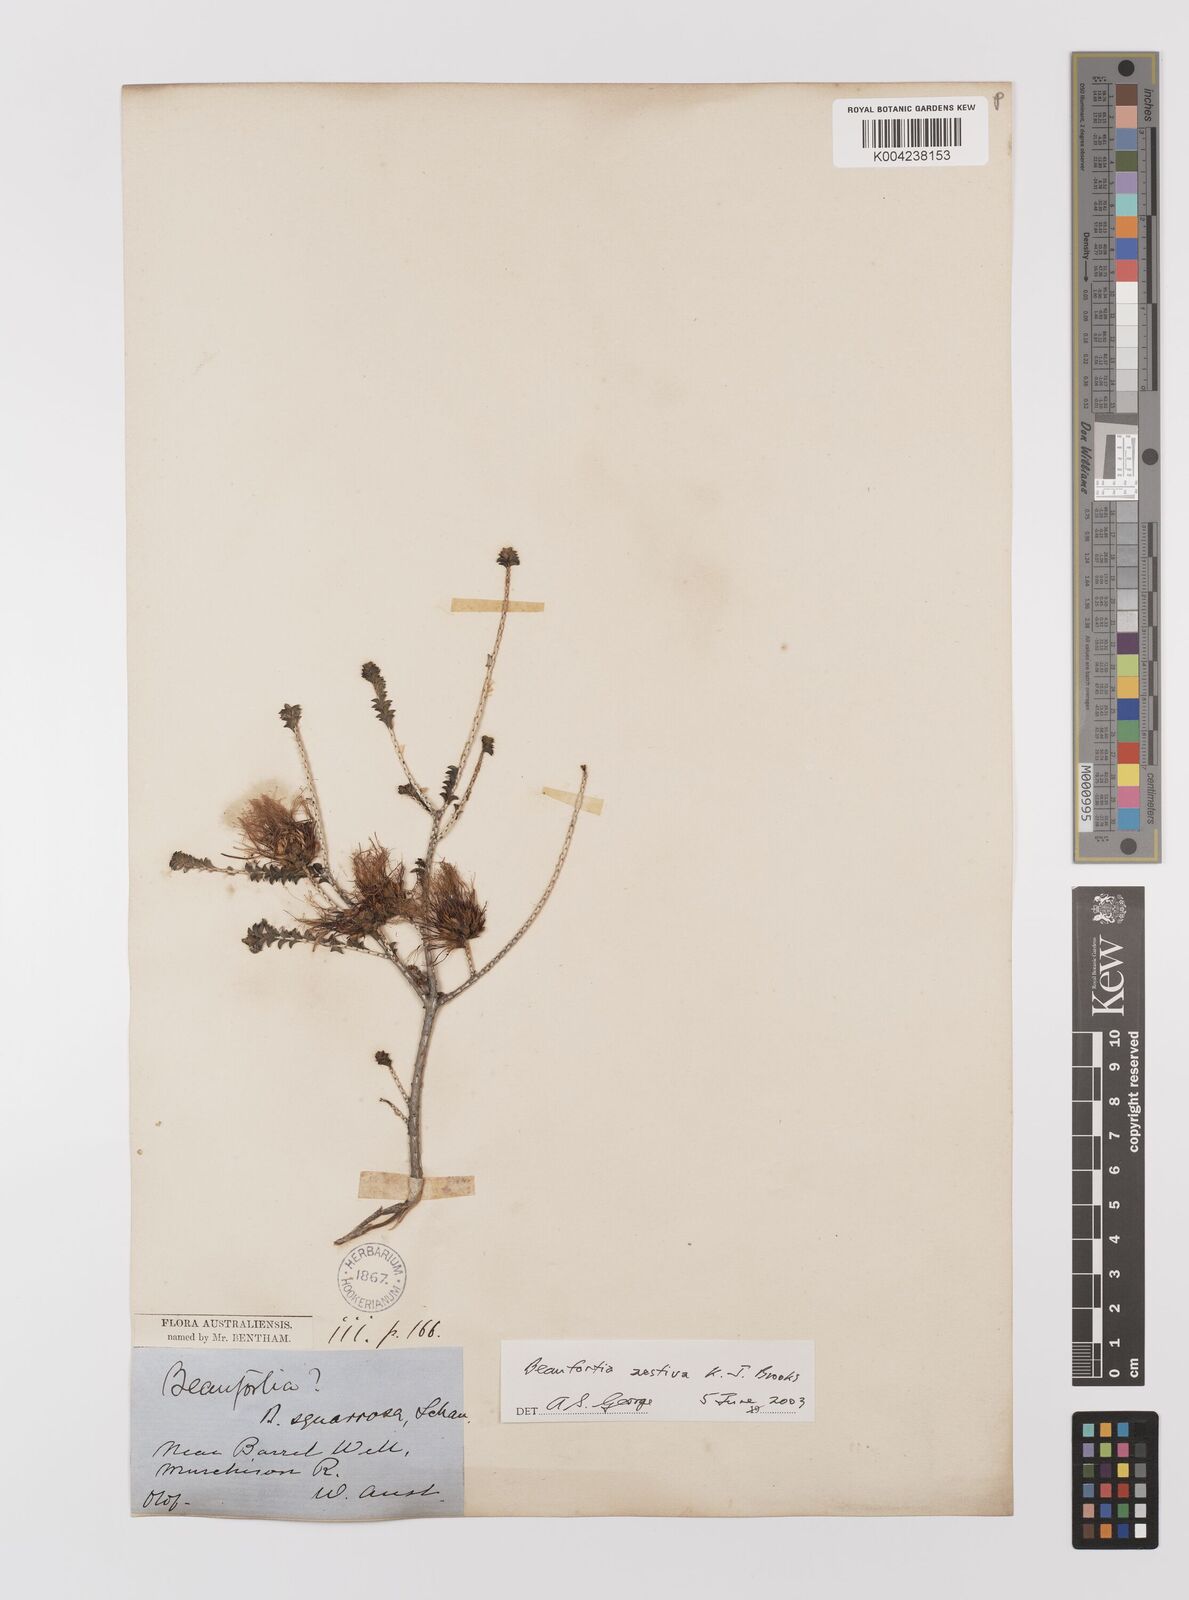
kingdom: Plantae
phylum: Tracheophyta
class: Magnoliopsida
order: Myrtales
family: Myrtaceae
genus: Melaleuca
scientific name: Melaleuca aestiva
